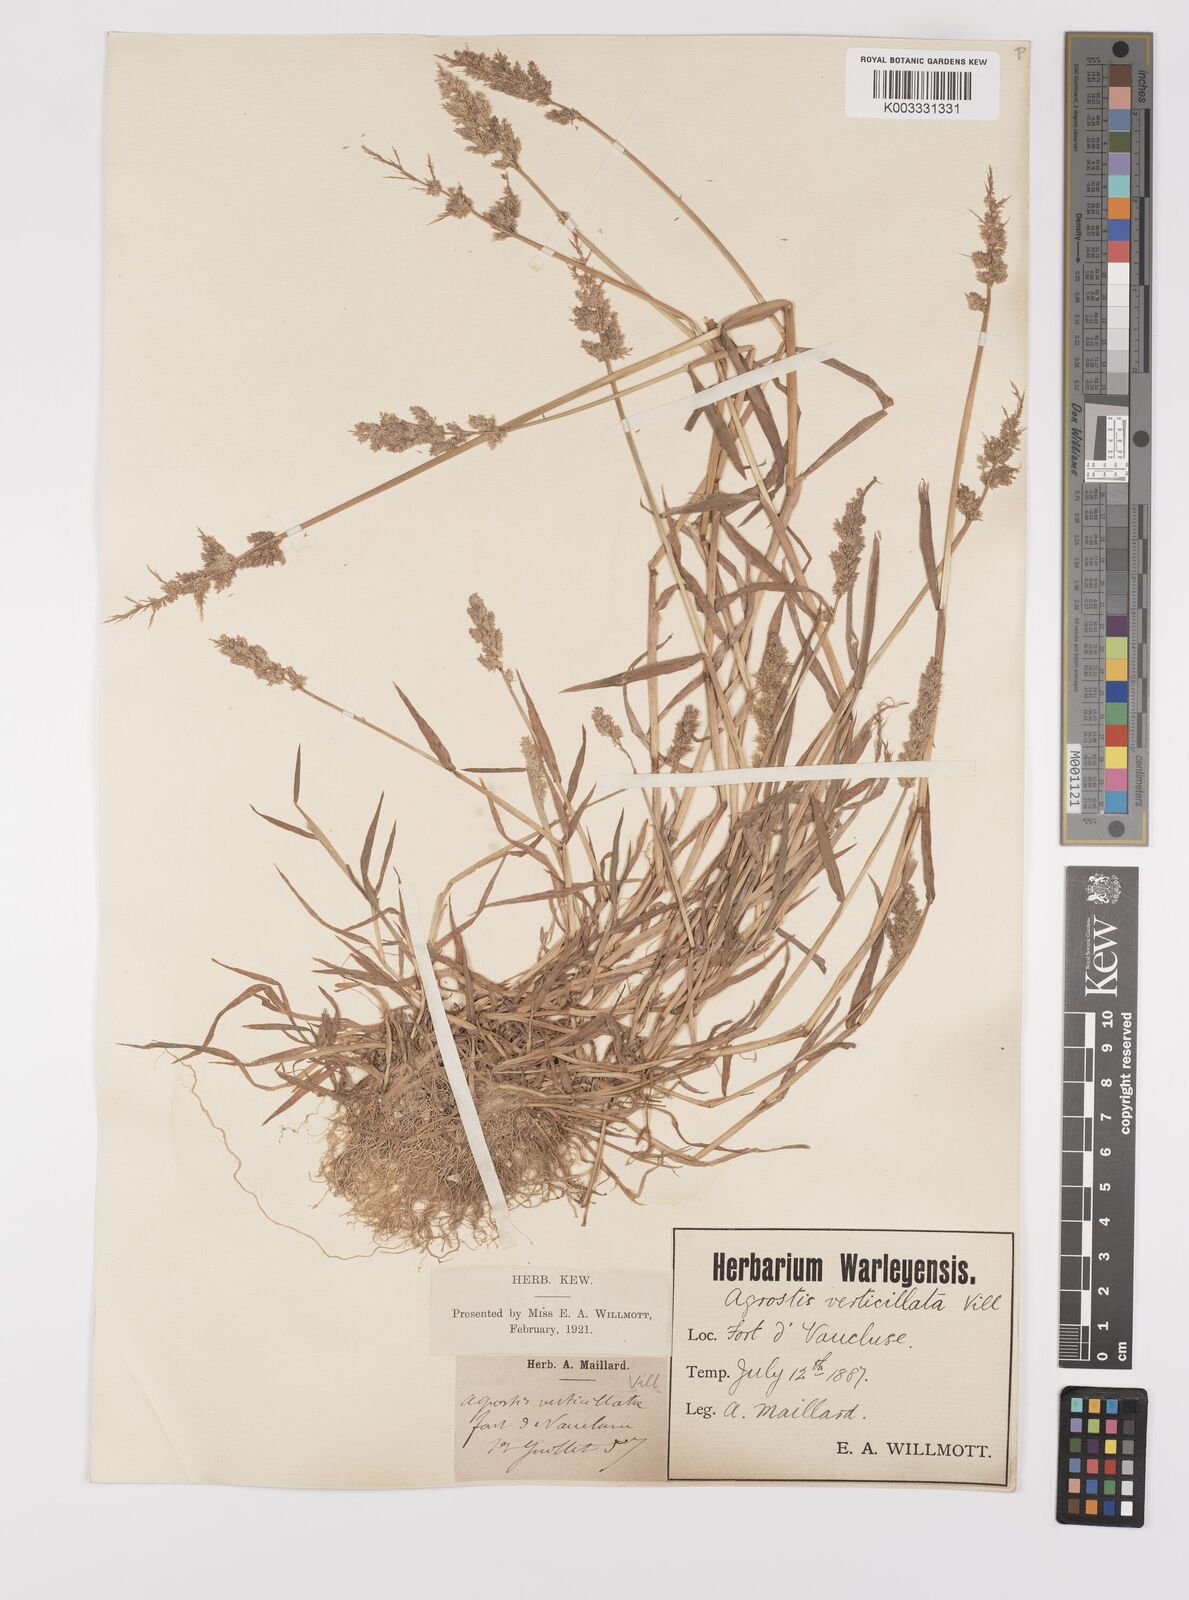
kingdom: Plantae
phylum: Tracheophyta
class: Liliopsida
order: Poales
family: Poaceae
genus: Polypogon
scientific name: Polypogon viridis
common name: Water bent
